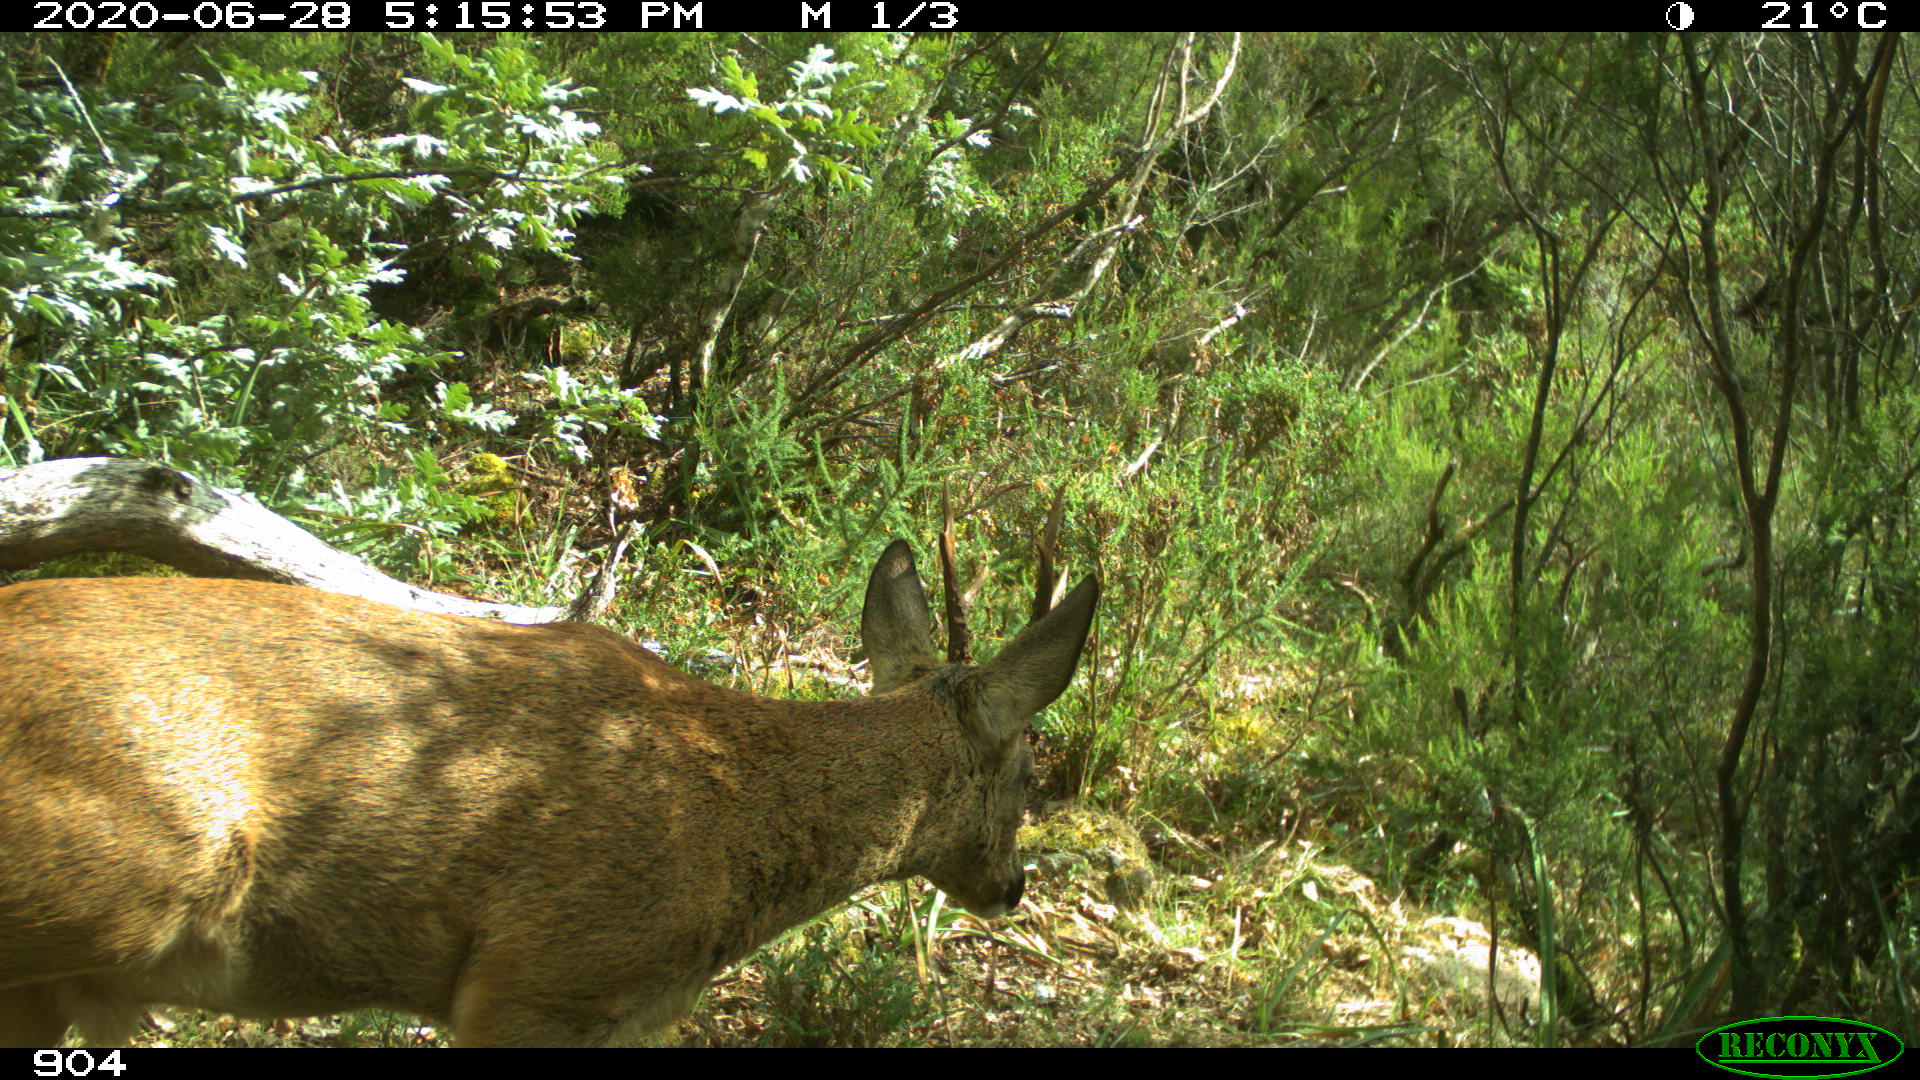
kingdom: Animalia
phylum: Chordata
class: Mammalia
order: Artiodactyla
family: Cervidae
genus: Capreolus
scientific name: Capreolus capreolus
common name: Western roe deer
